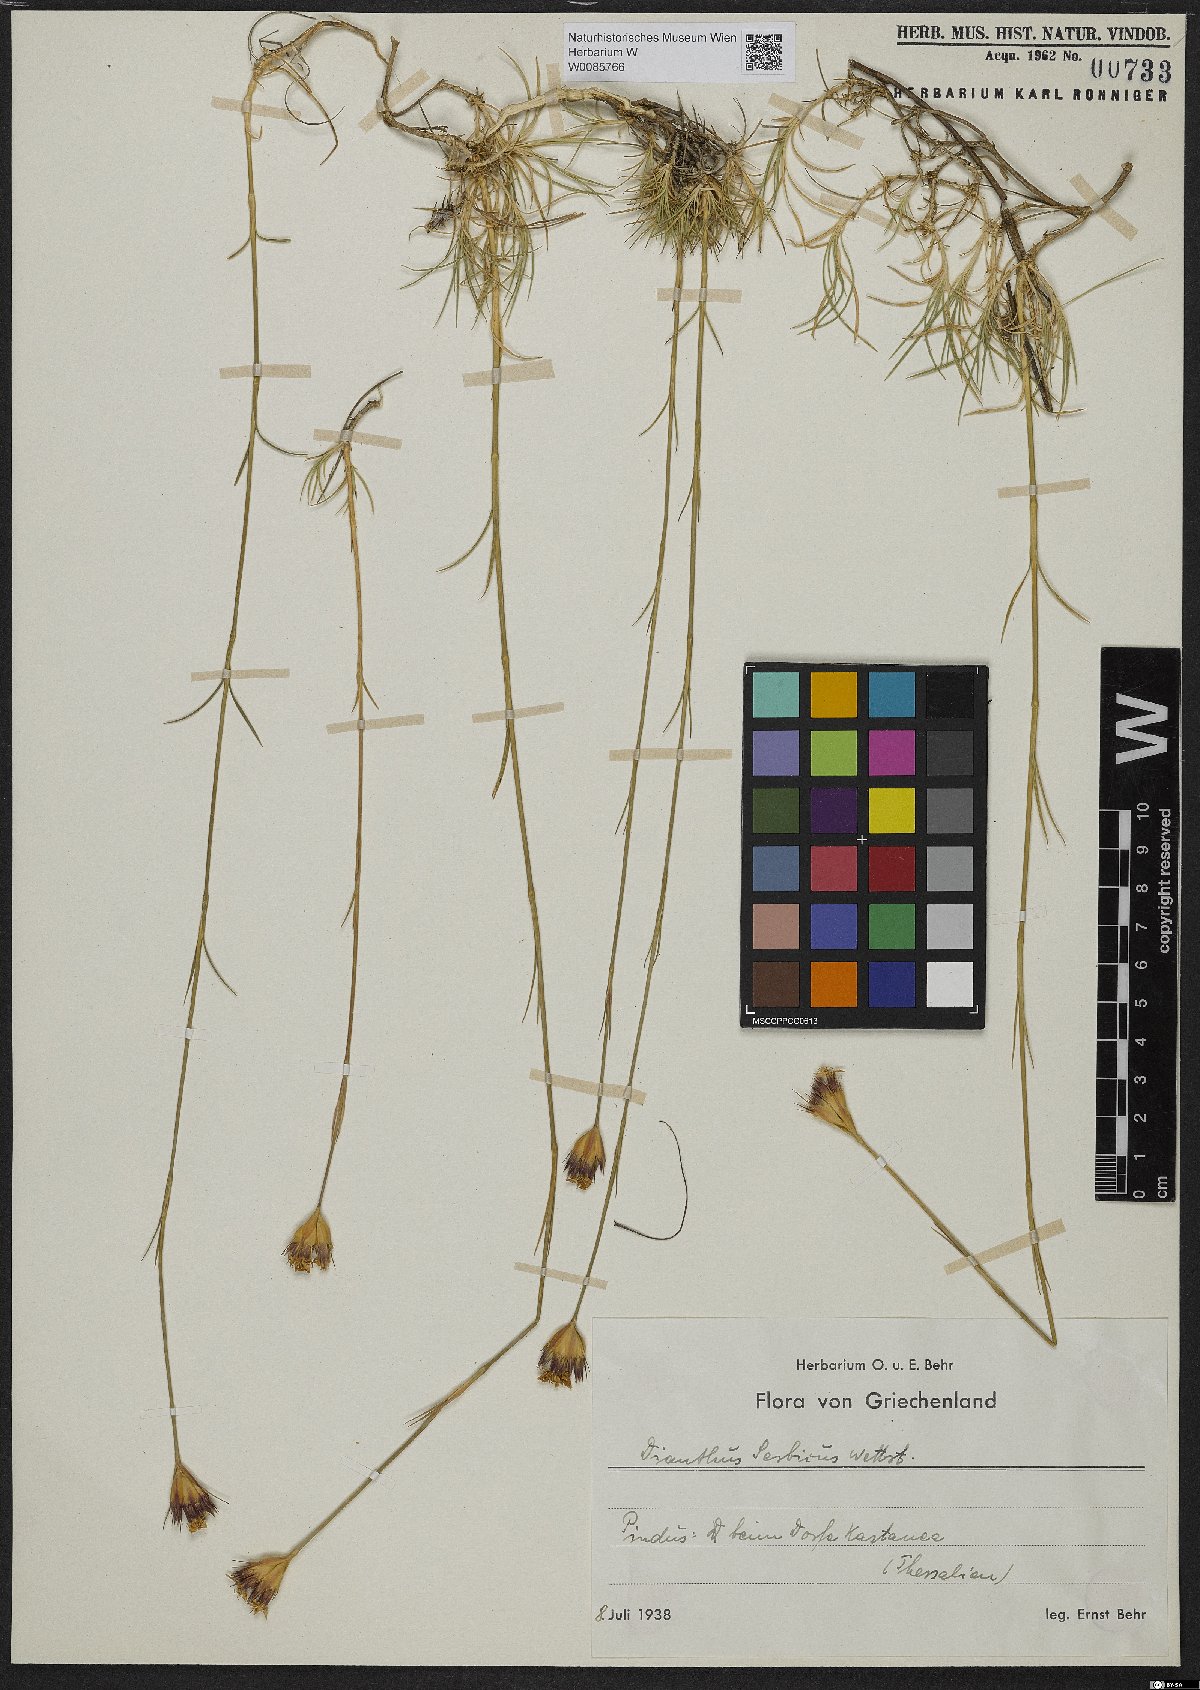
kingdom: Plantae
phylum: Tracheophyta
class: Magnoliopsida
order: Caryophyllales
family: Caryophyllaceae
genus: Dianthus
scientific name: Dianthus pinifolius
